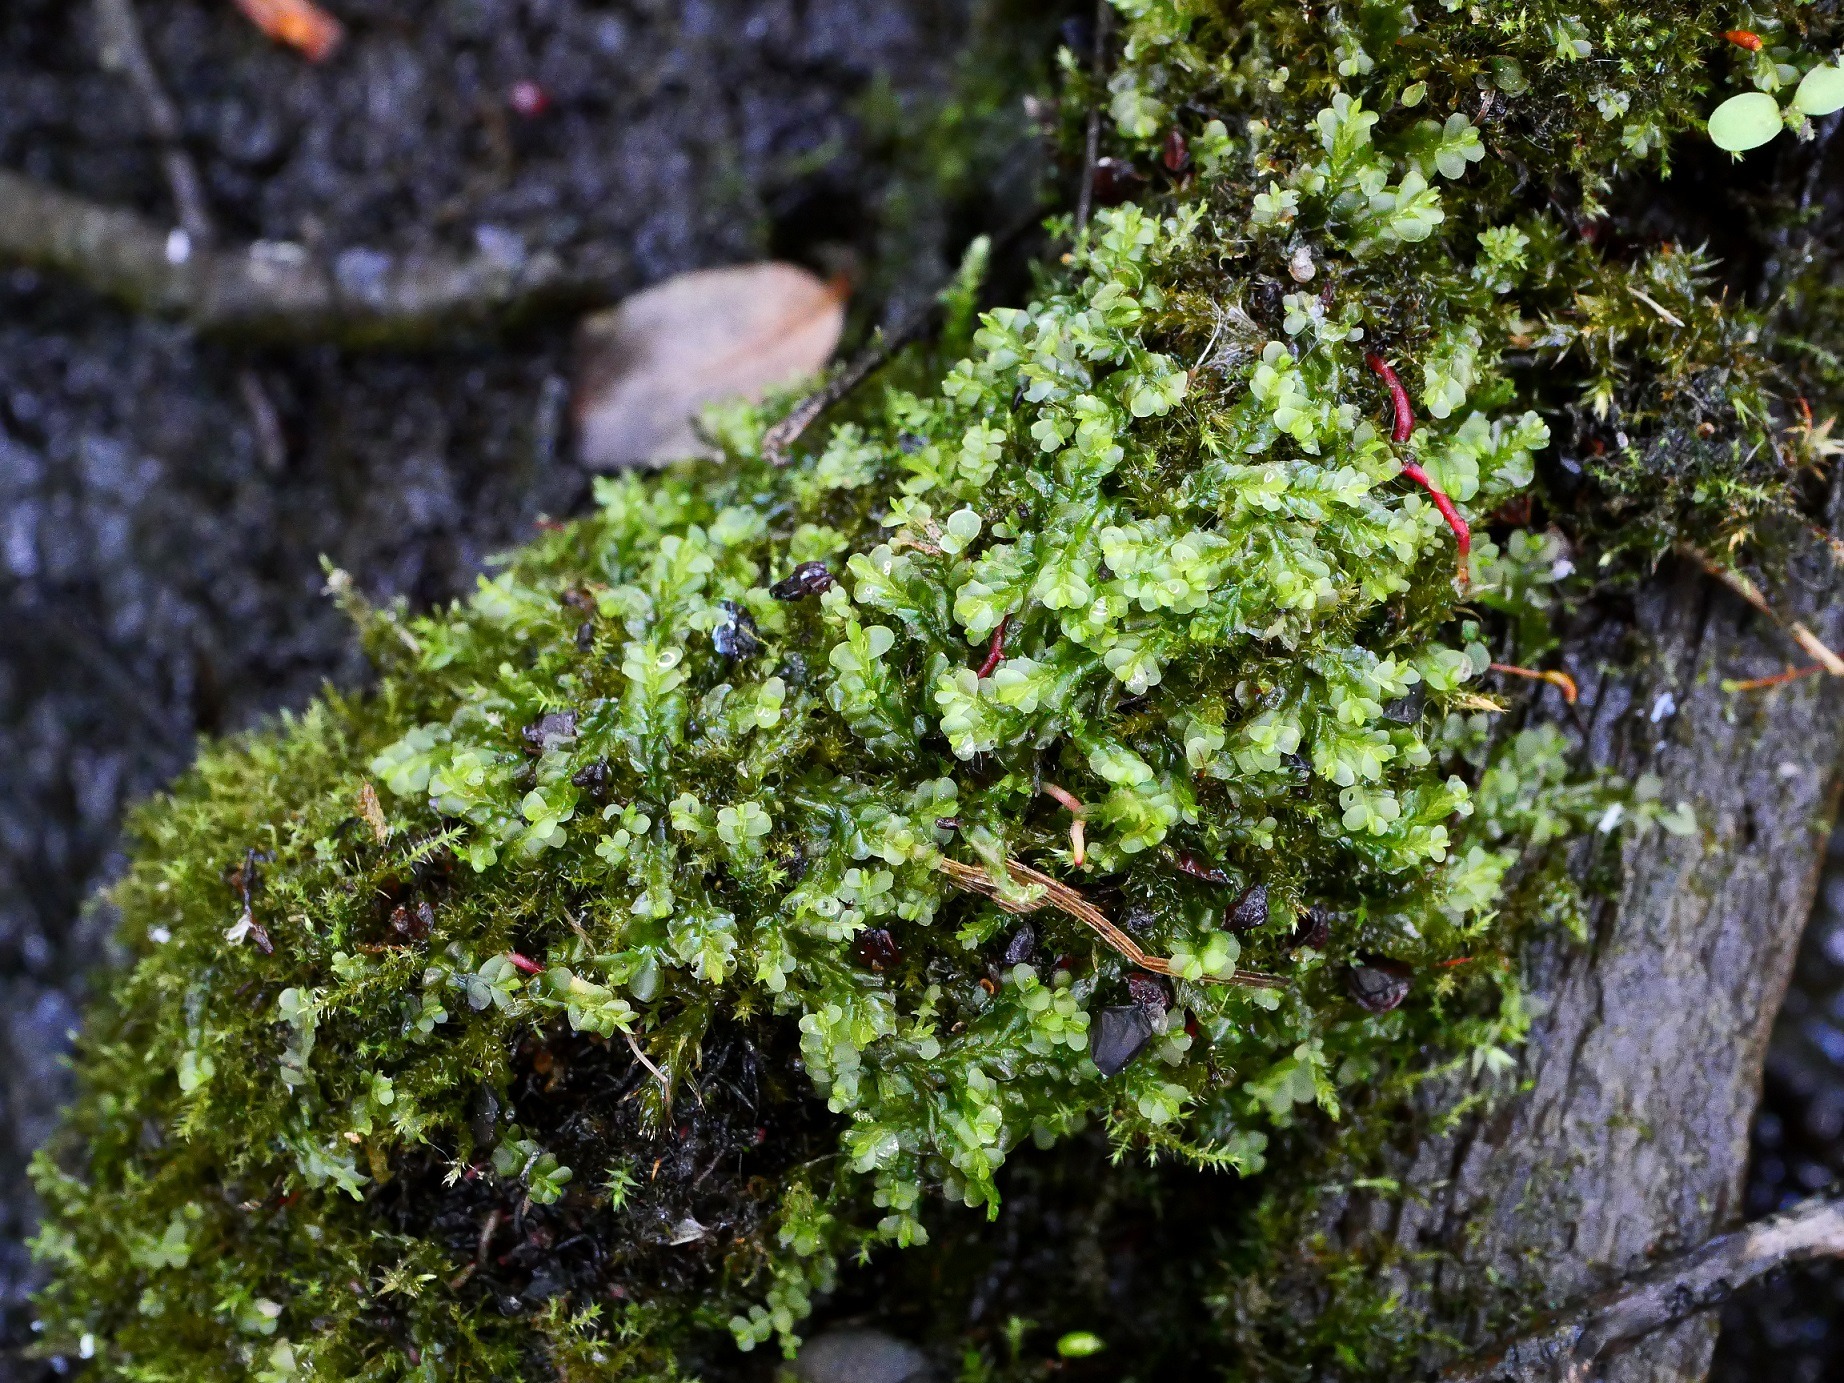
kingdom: Plantae
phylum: Marchantiophyta
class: Jungermanniopsida
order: Jungermanniales
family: Lophocoleaceae
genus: Chiloscyphus
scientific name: Chiloscyphus polyanthos
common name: Almindelig læbemund
